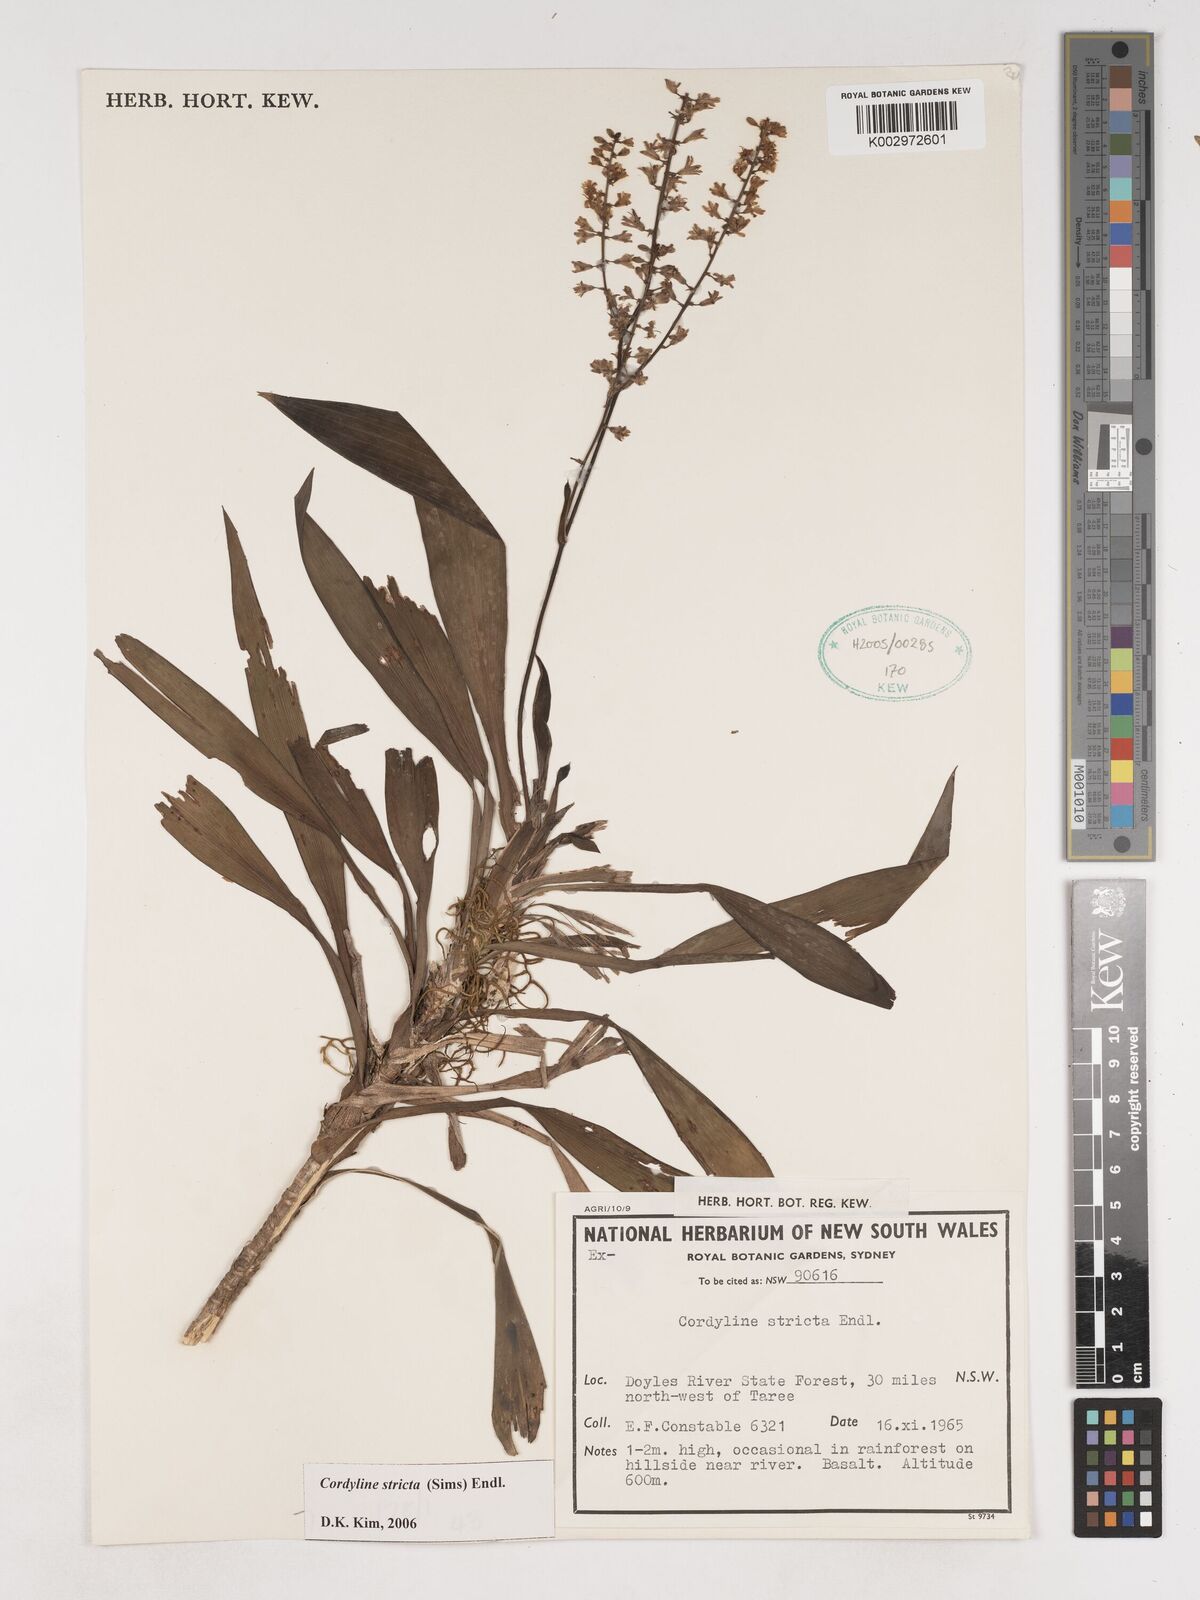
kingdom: Plantae
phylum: Tracheophyta
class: Liliopsida
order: Asparagales
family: Asparagaceae
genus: Cordyline
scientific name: Cordyline stricta
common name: Narrow-leaf palm-lily
